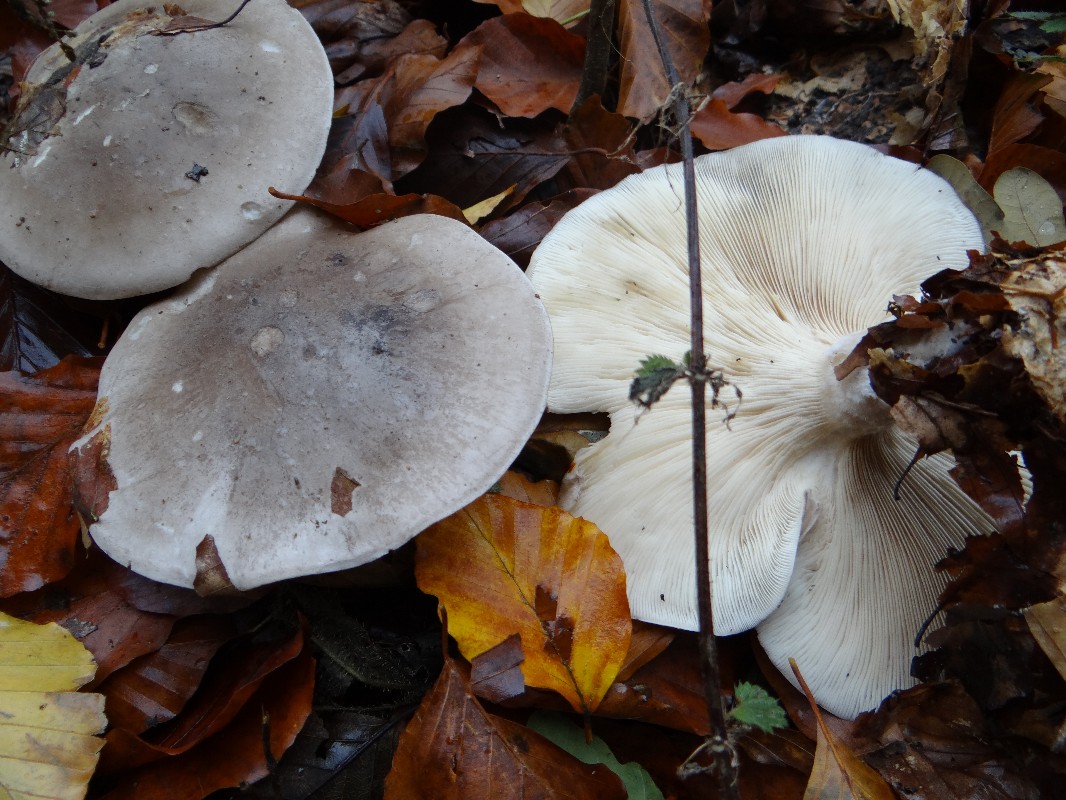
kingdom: Fungi
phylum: Basidiomycota
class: Agaricomycetes
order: Agaricales
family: Tricholomataceae
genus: Clitocybe
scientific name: Clitocybe nebularis
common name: tåge-tragthat
